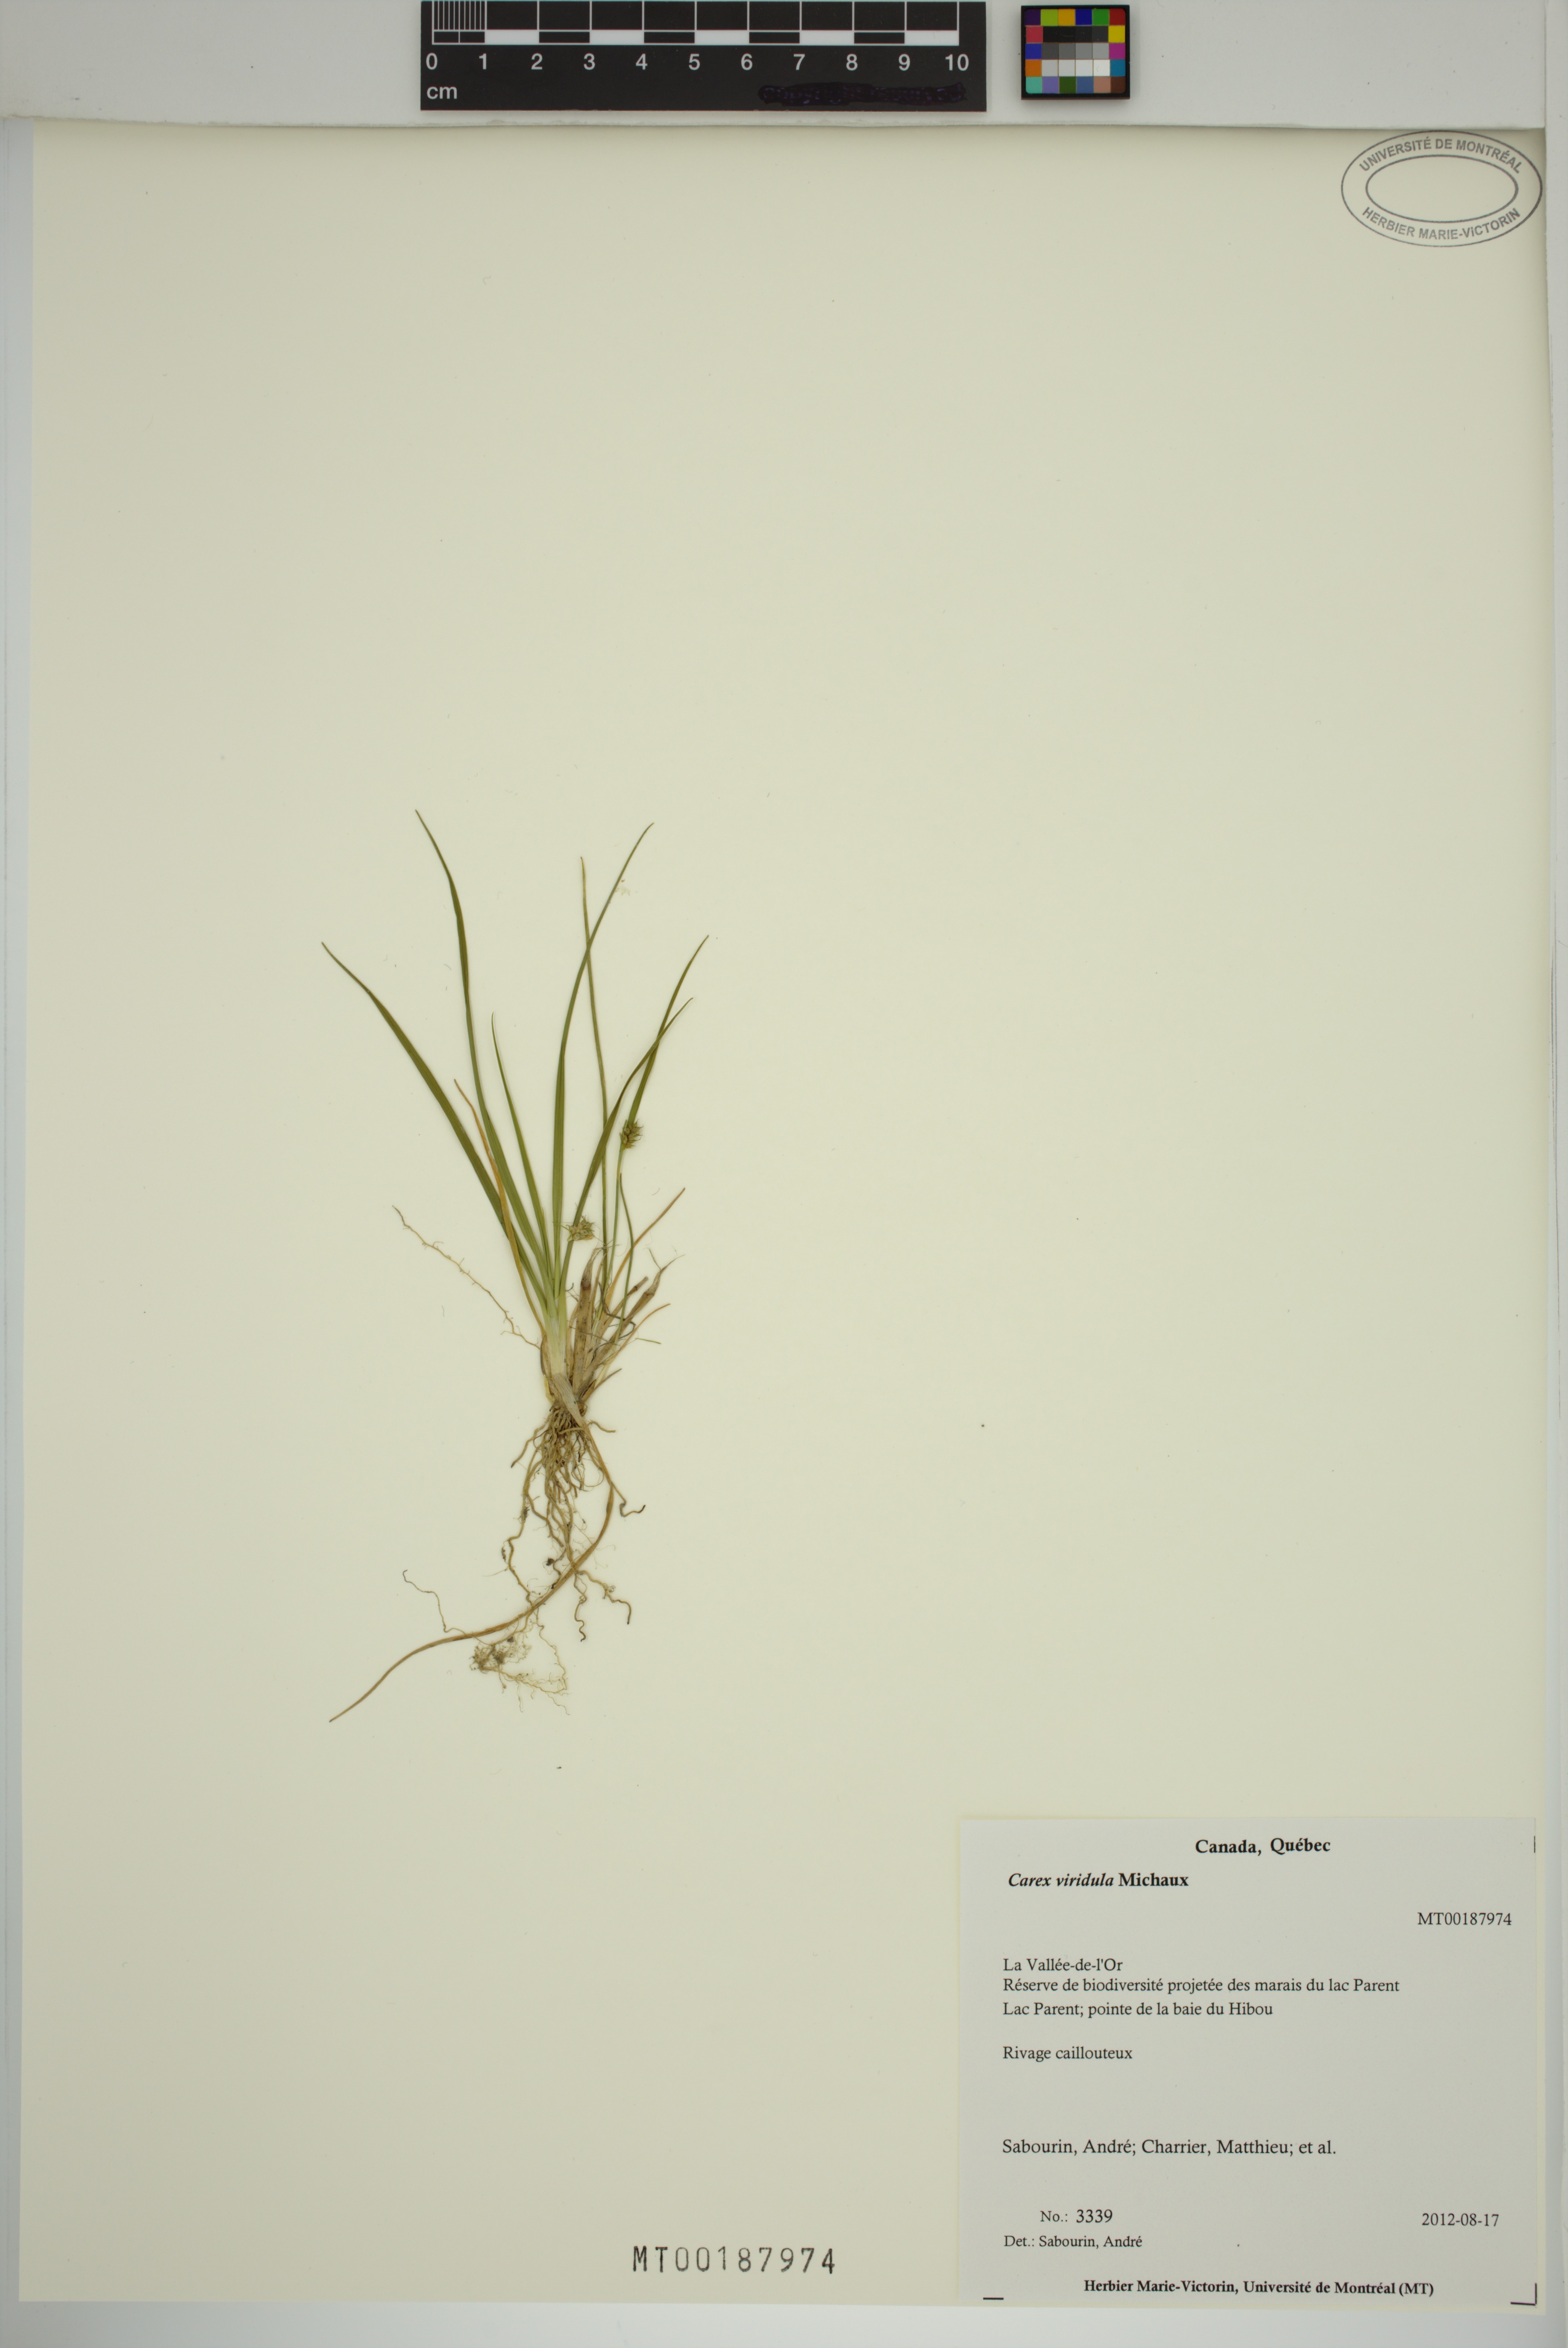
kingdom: Plantae
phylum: Tracheophyta
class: Liliopsida
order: Poales
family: Cyperaceae
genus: Carex
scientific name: Carex oederi
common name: Common & small-fruited yellow-sedge
